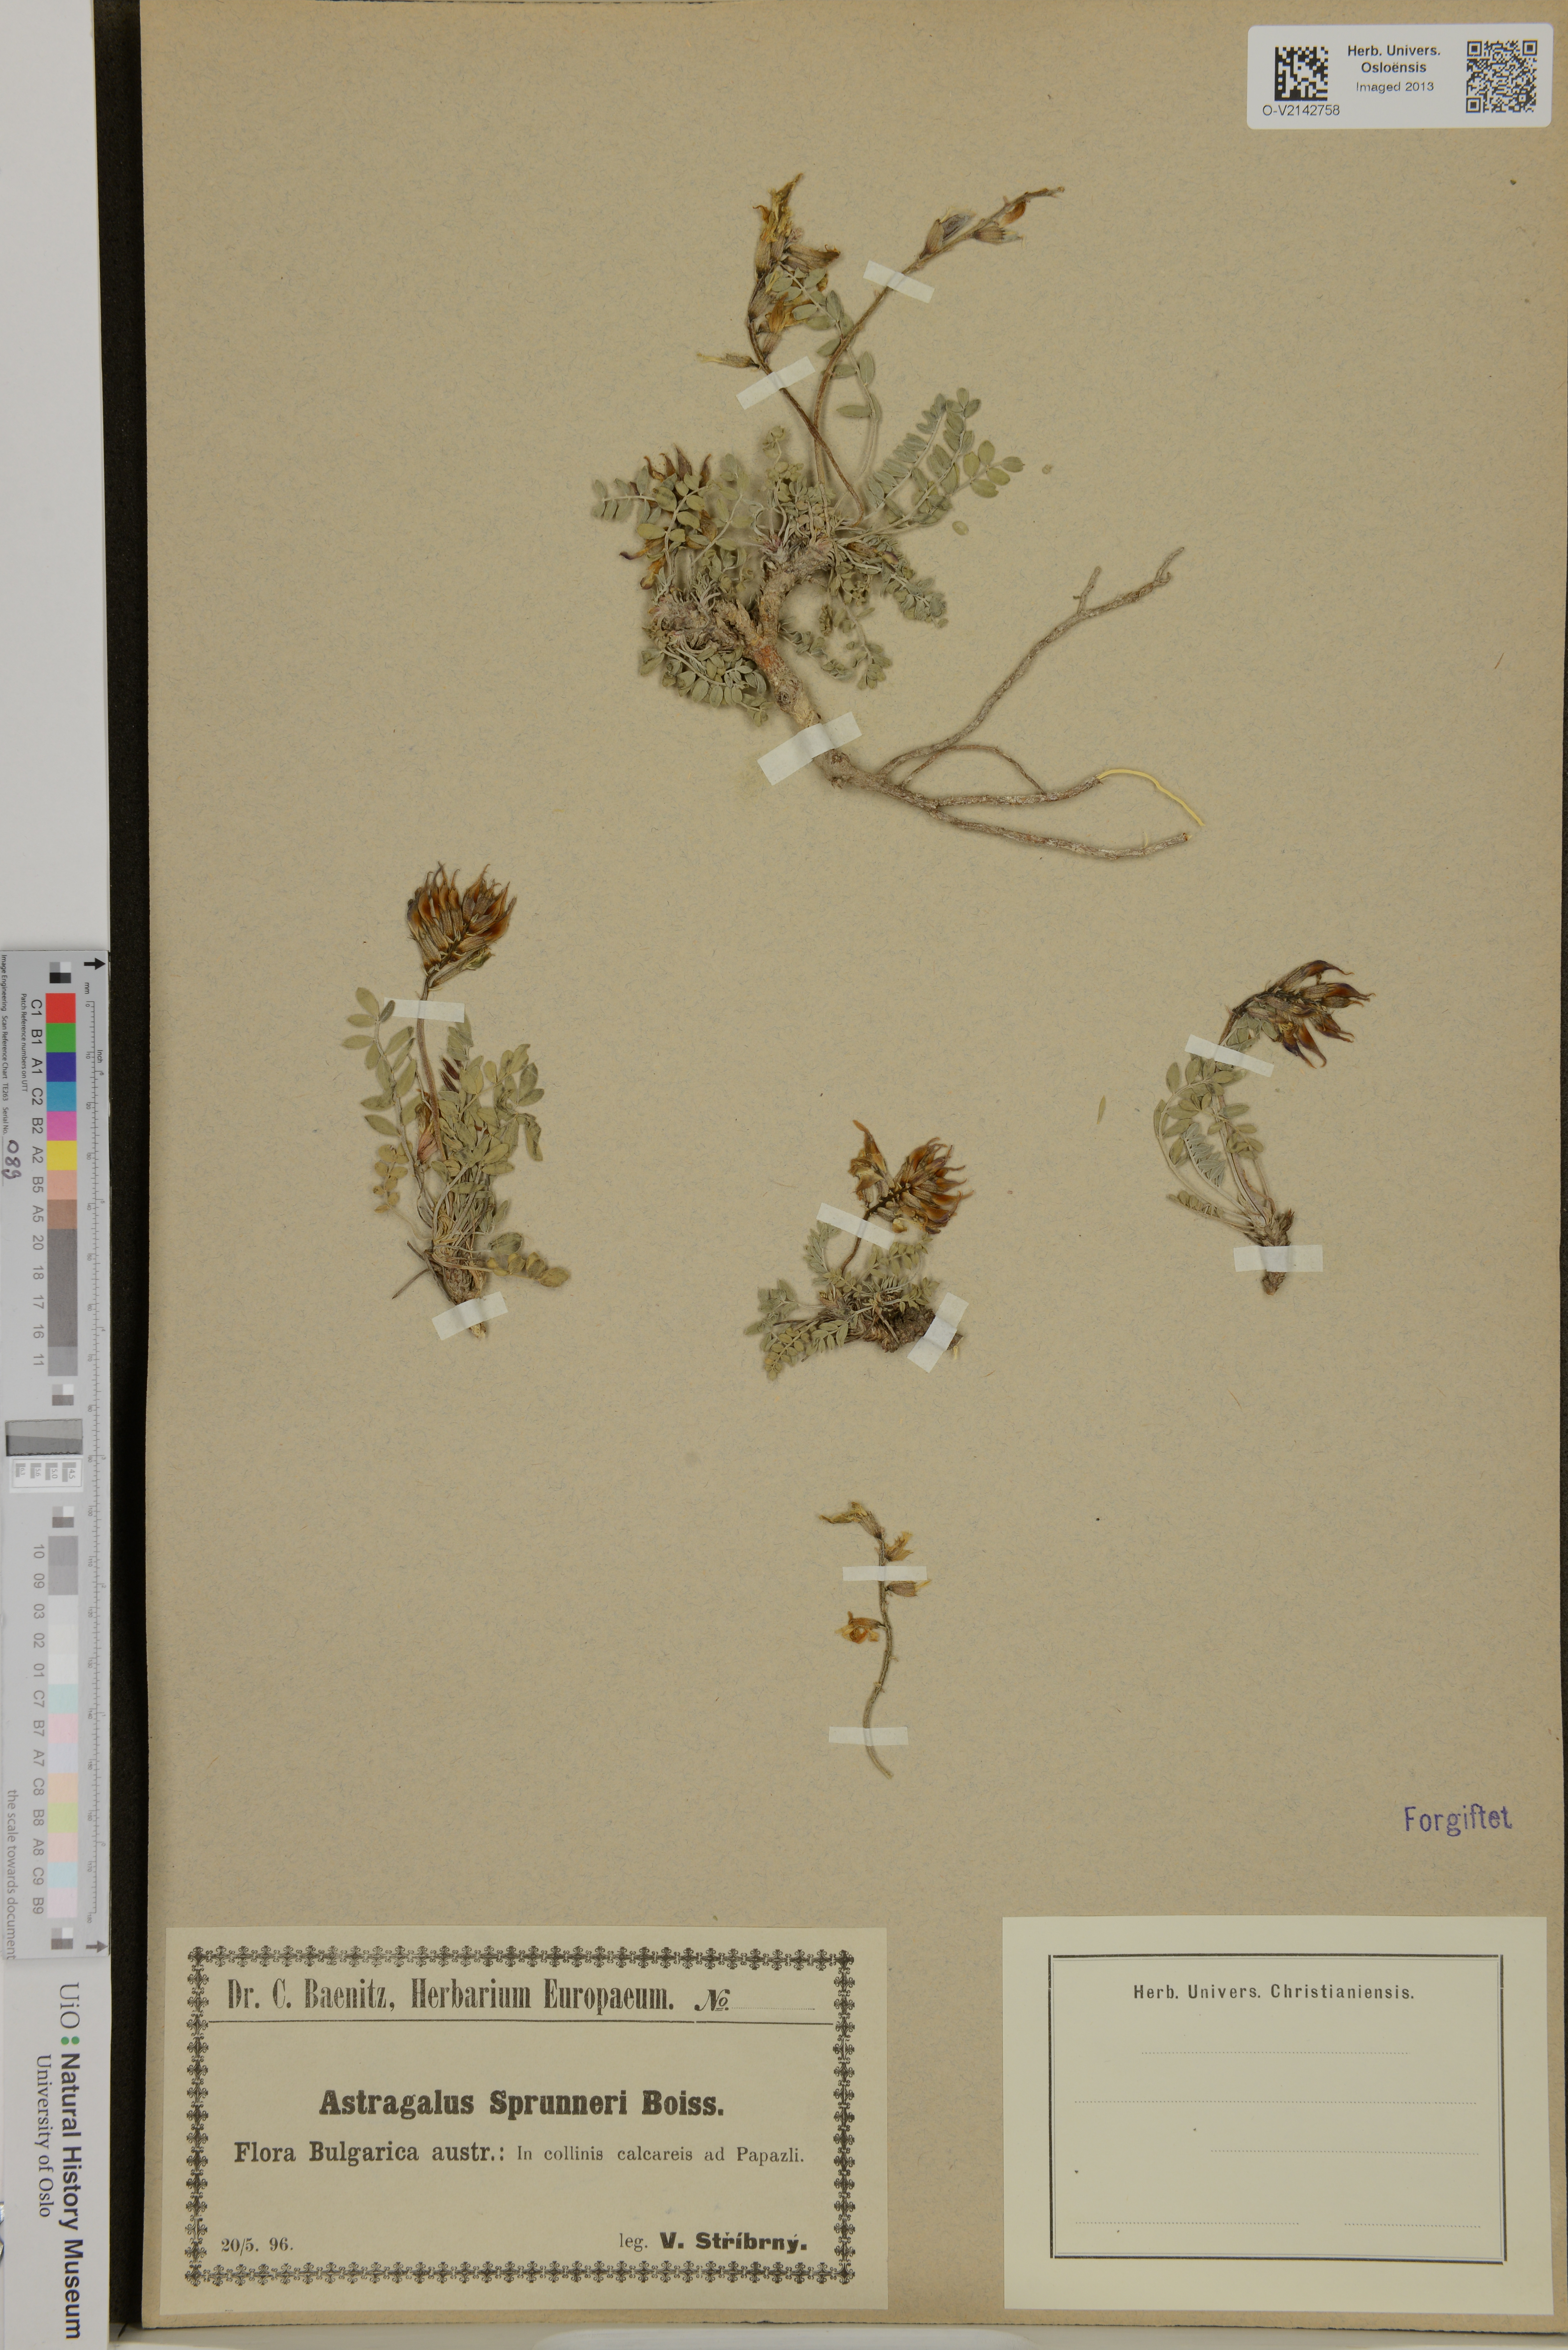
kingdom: Plantae
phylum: Tracheophyta
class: Magnoliopsida
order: Fabales
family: Fabaceae
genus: Astragalus
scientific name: Astragalus spruneri
